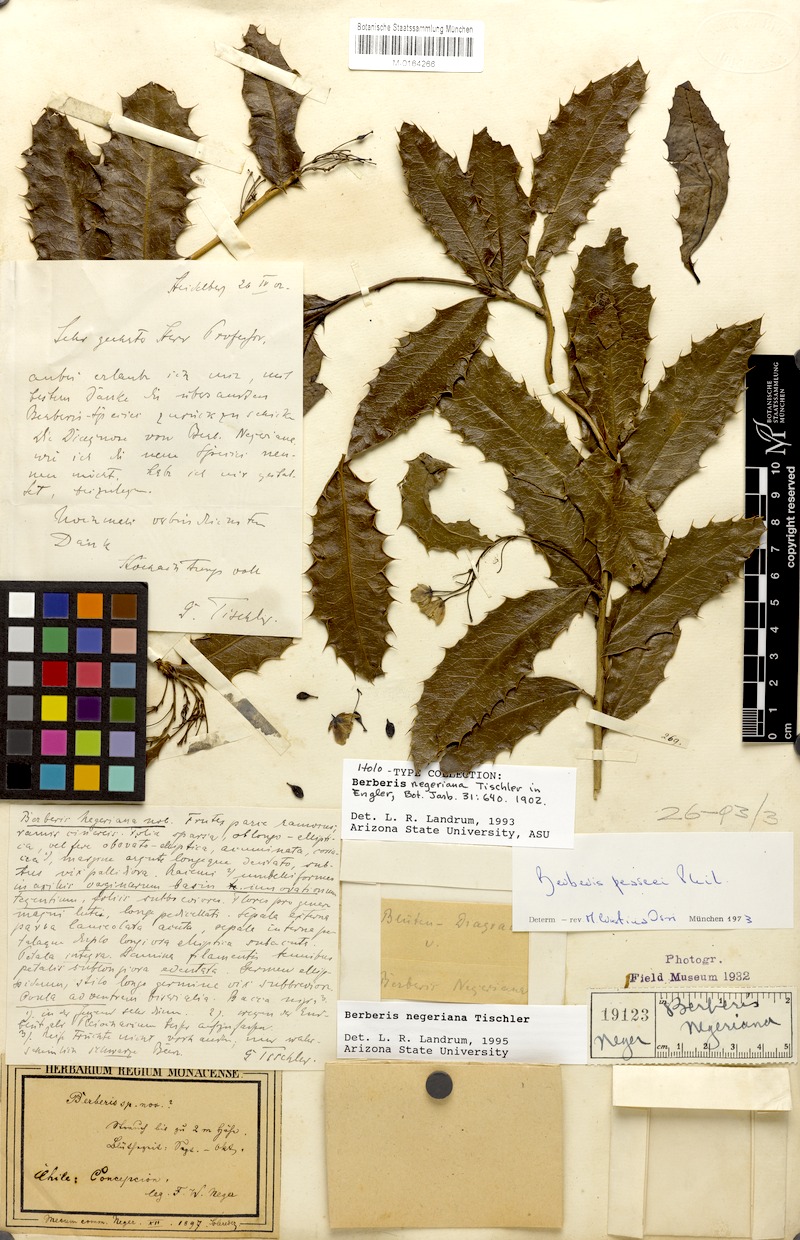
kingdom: Plantae
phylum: Tracheophyta
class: Magnoliopsida
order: Ranunculales
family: Berberidaceae
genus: Berberis
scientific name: Berberis negeriana
